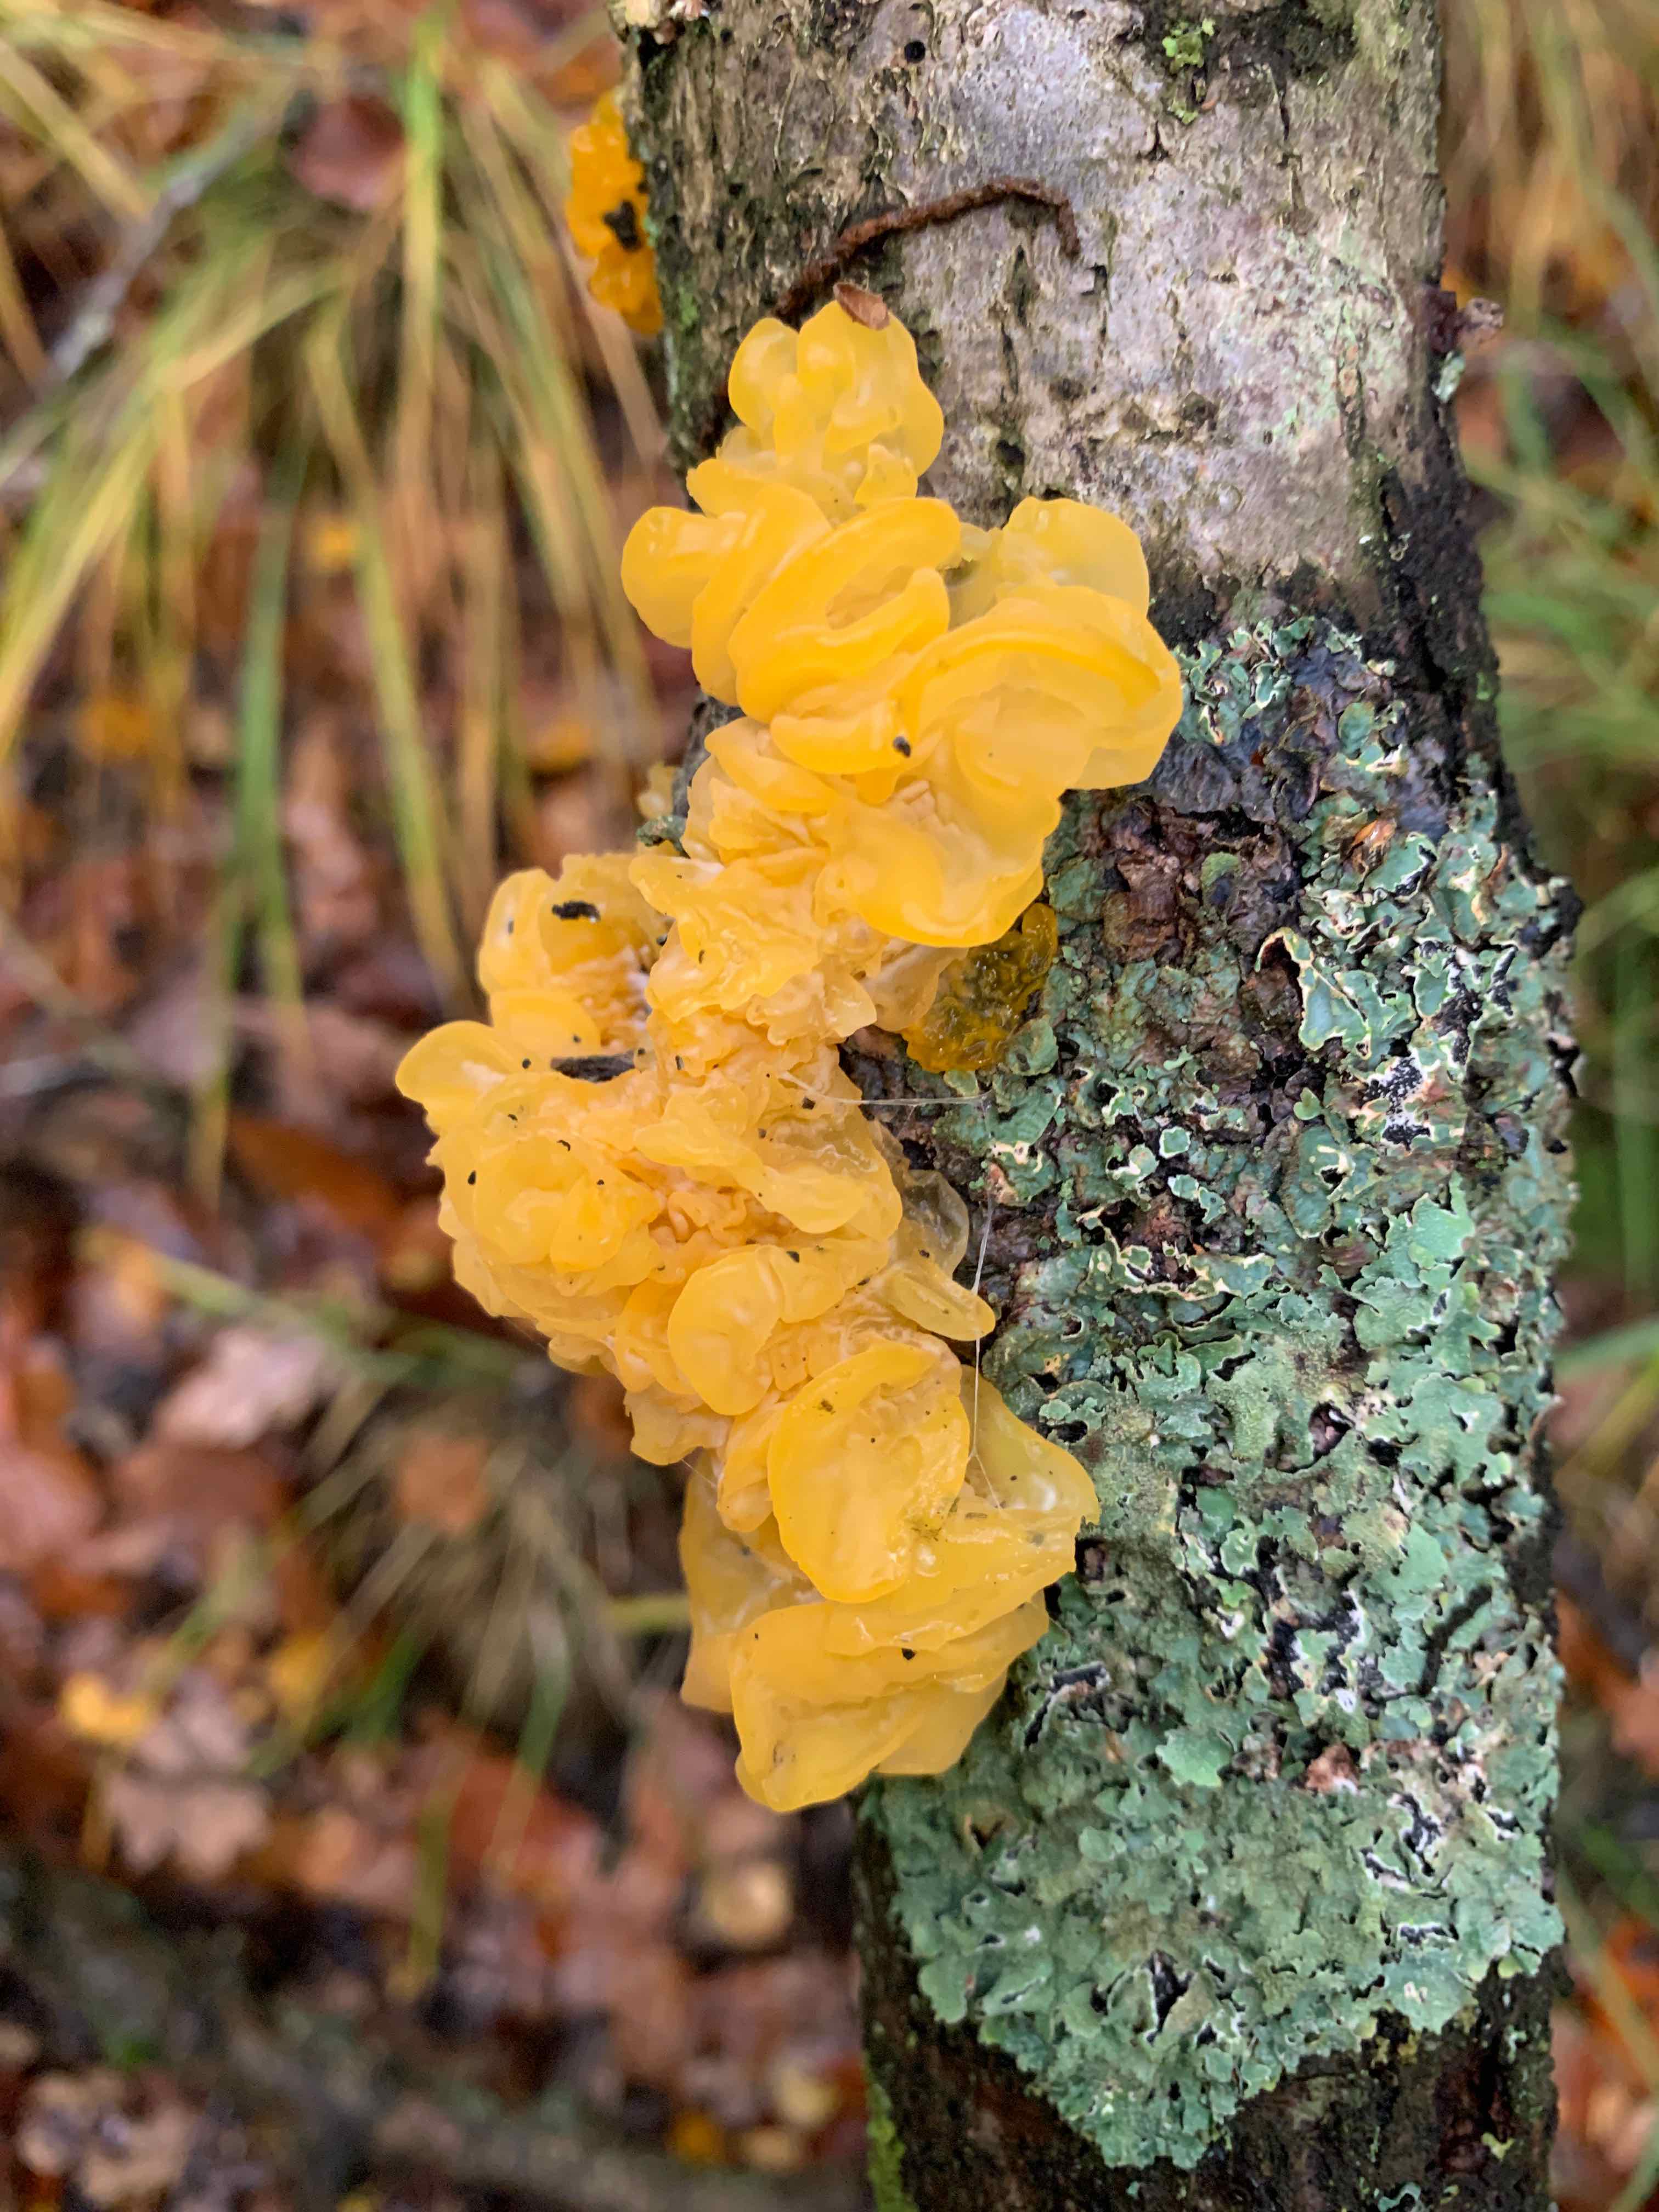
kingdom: Fungi
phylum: Basidiomycota
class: Tremellomycetes
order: Tremellales
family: Tremellaceae
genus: Tremella
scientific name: Tremella mesenterica
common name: gul bævresvamp
